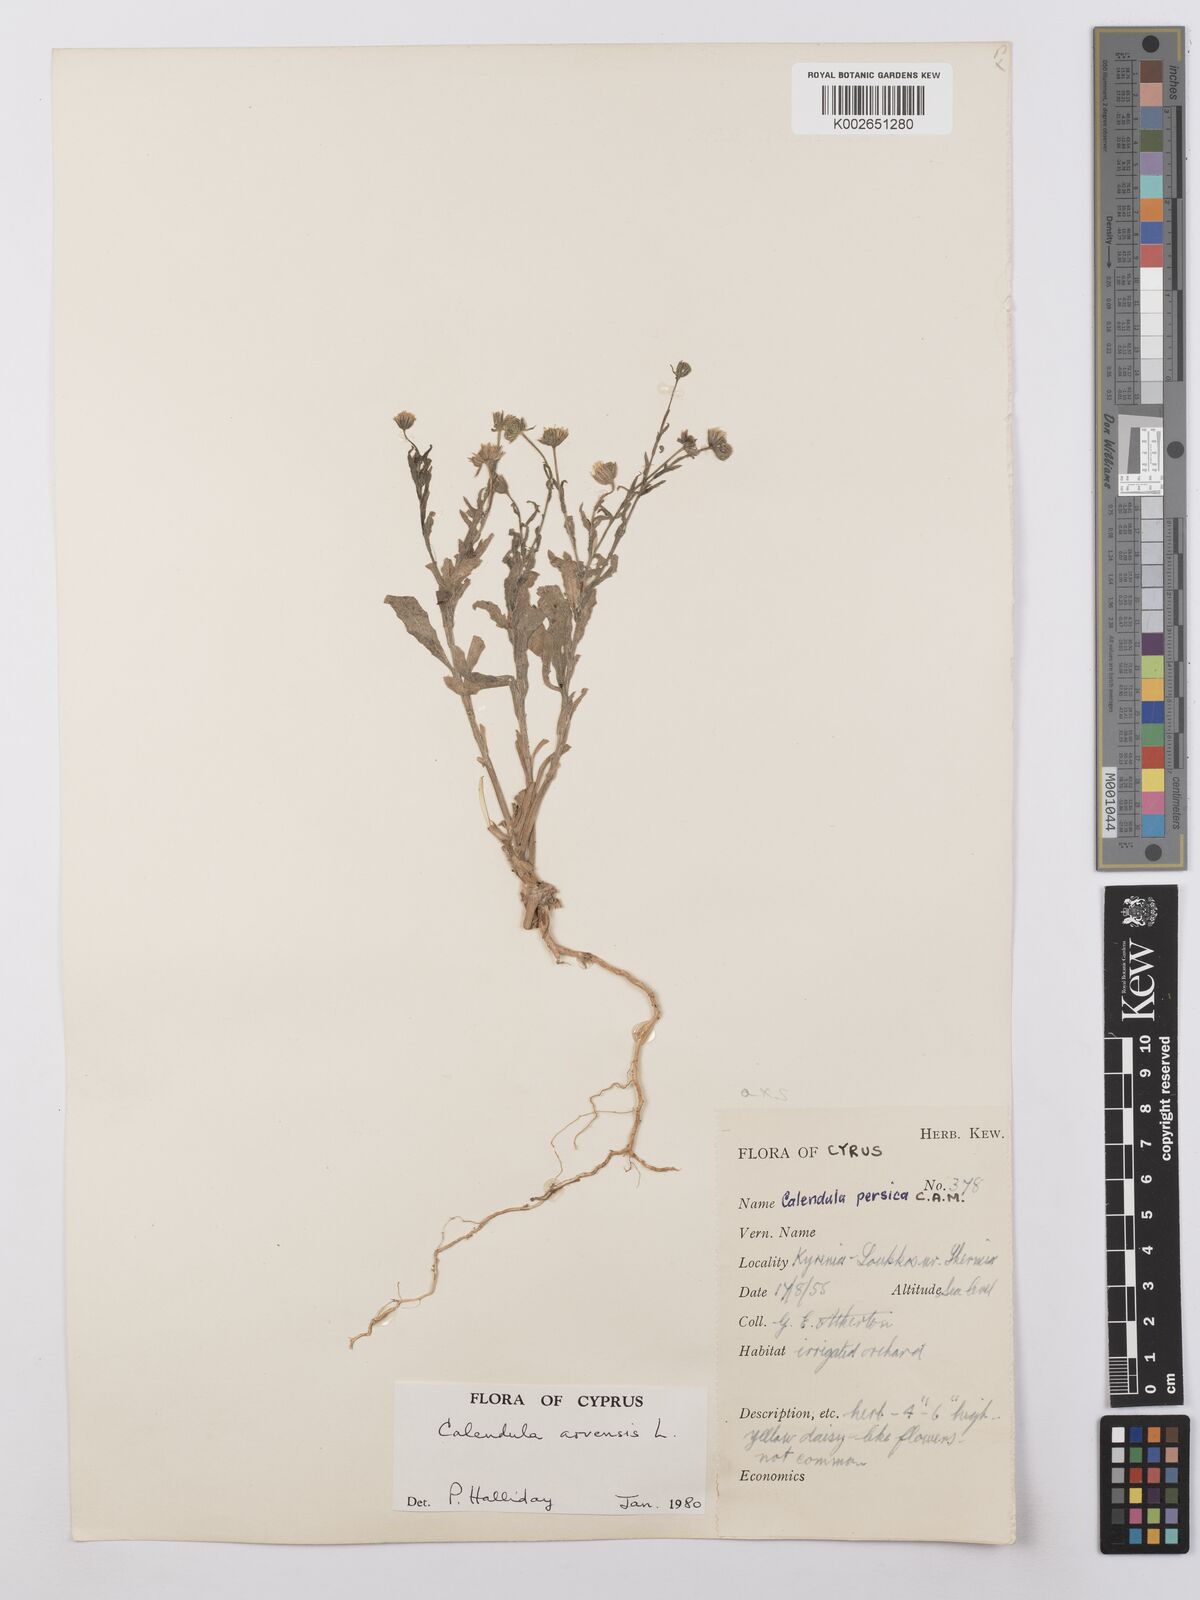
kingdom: Plantae
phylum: Tracheophyta
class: Magnoliopsida
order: Asterales
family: Asteraceae
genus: Calendula
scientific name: Calendula arvensis
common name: Field marigold
